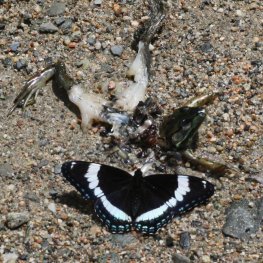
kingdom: Animalia
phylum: Arthropoda
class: Insecta
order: Lepidoptera
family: Nymphalidae
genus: Limenitis
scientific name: Limenitis arthemis
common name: Red-spotted Admiral
